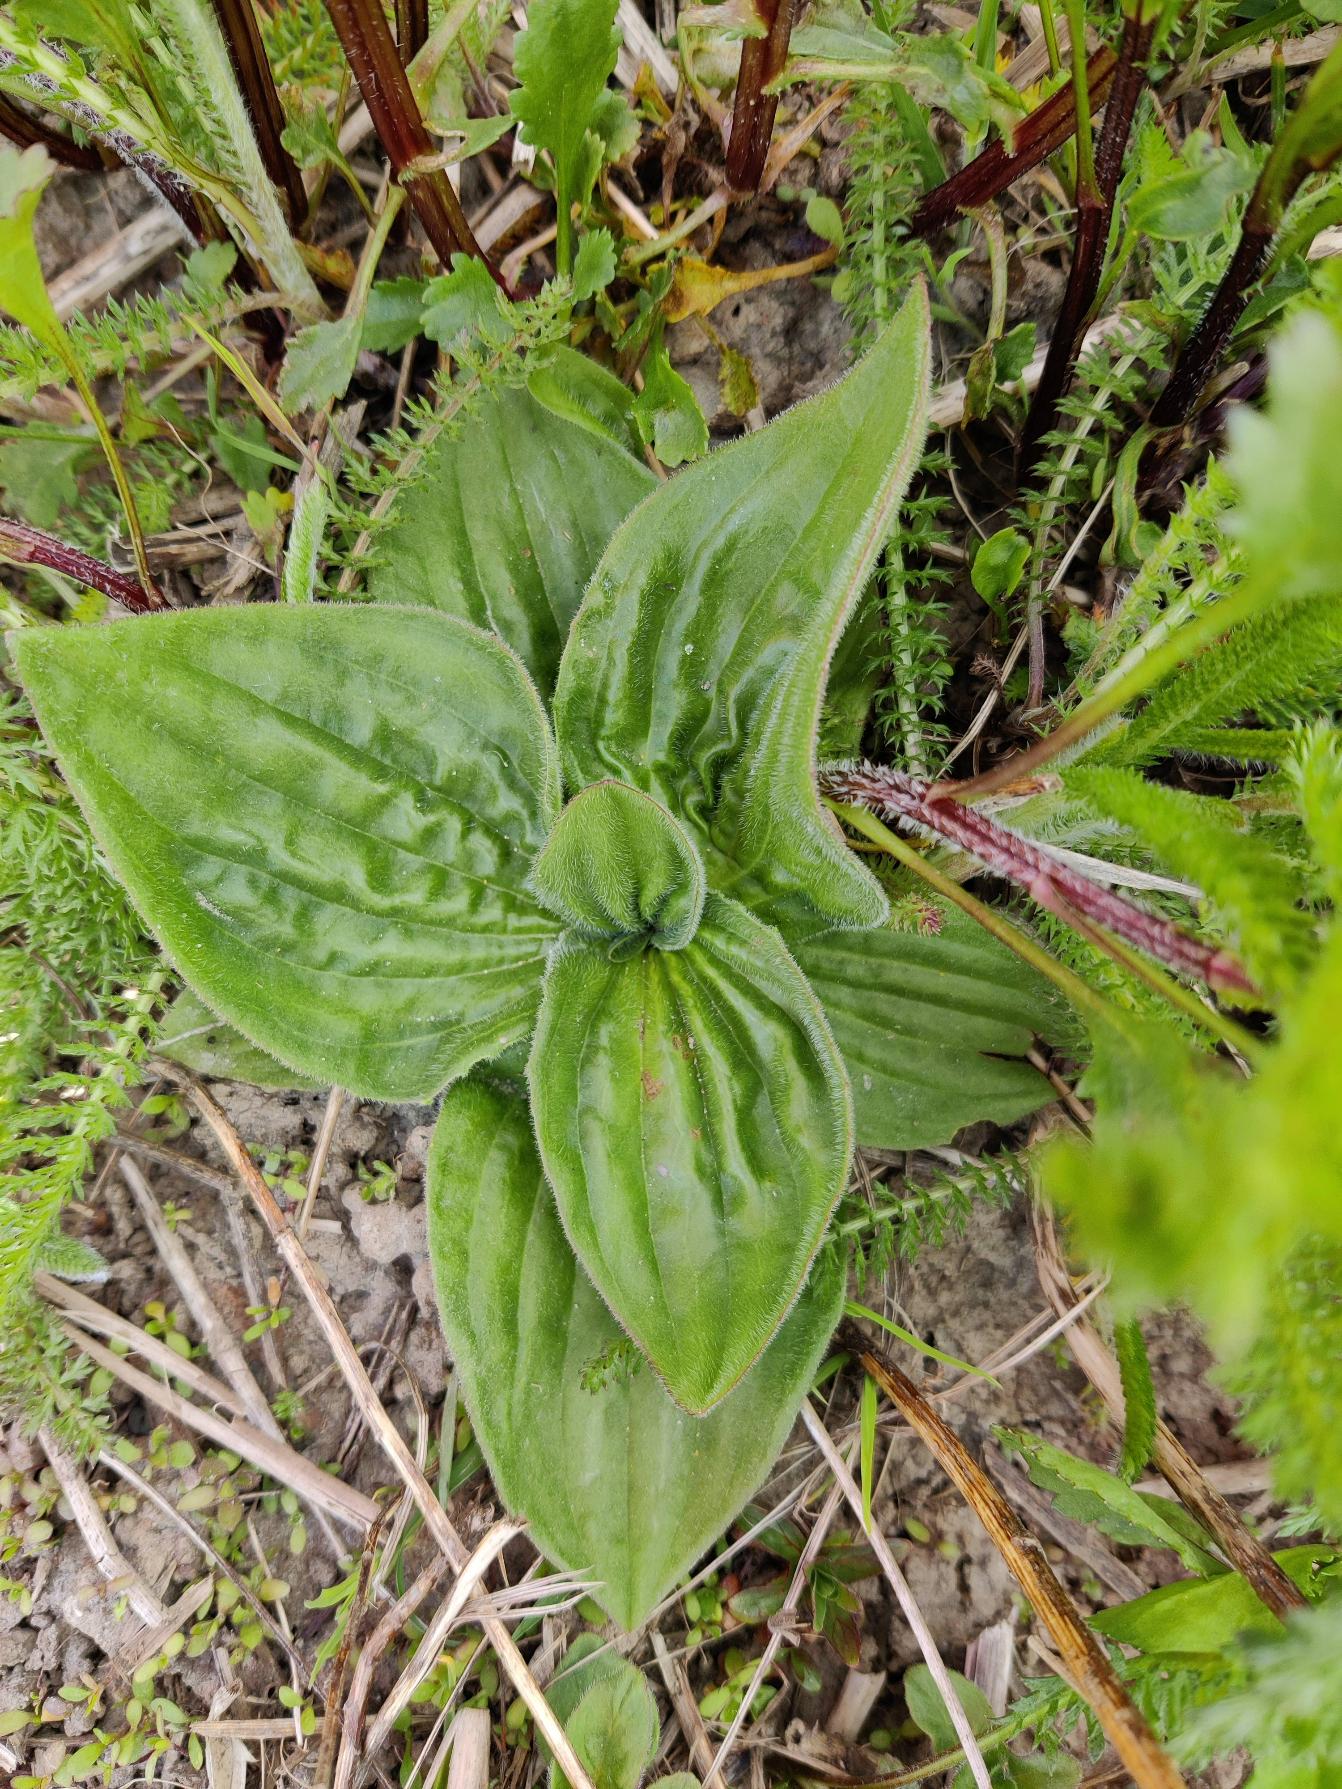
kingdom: Plantae
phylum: Tracheophyta
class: Magnoliopsida
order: Lamiales
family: Plantaginaceae
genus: Plantago
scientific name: Plantago media
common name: Dunet vejbred
